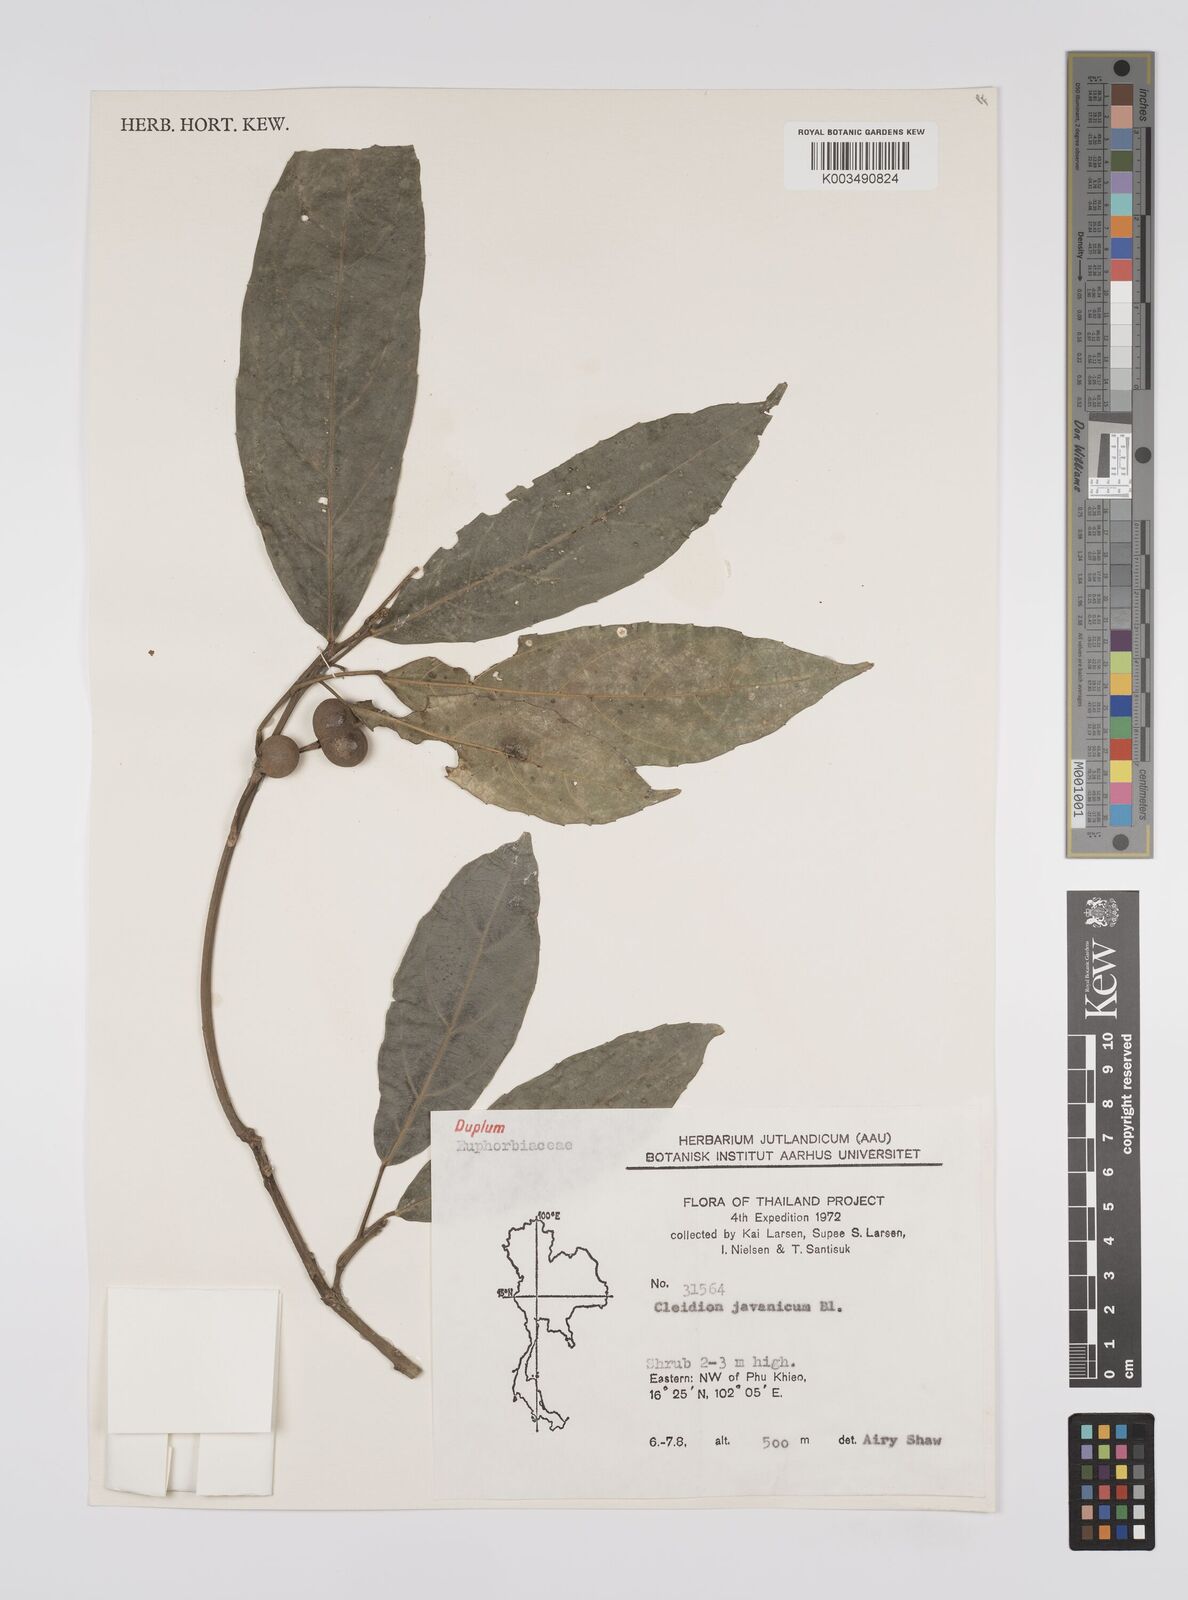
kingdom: Plantae
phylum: Tracheophyta
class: Magnoliopsida
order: Malpighiales
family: Euphorbiaceae
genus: Acalypha
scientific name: Acalypha spiciflora
